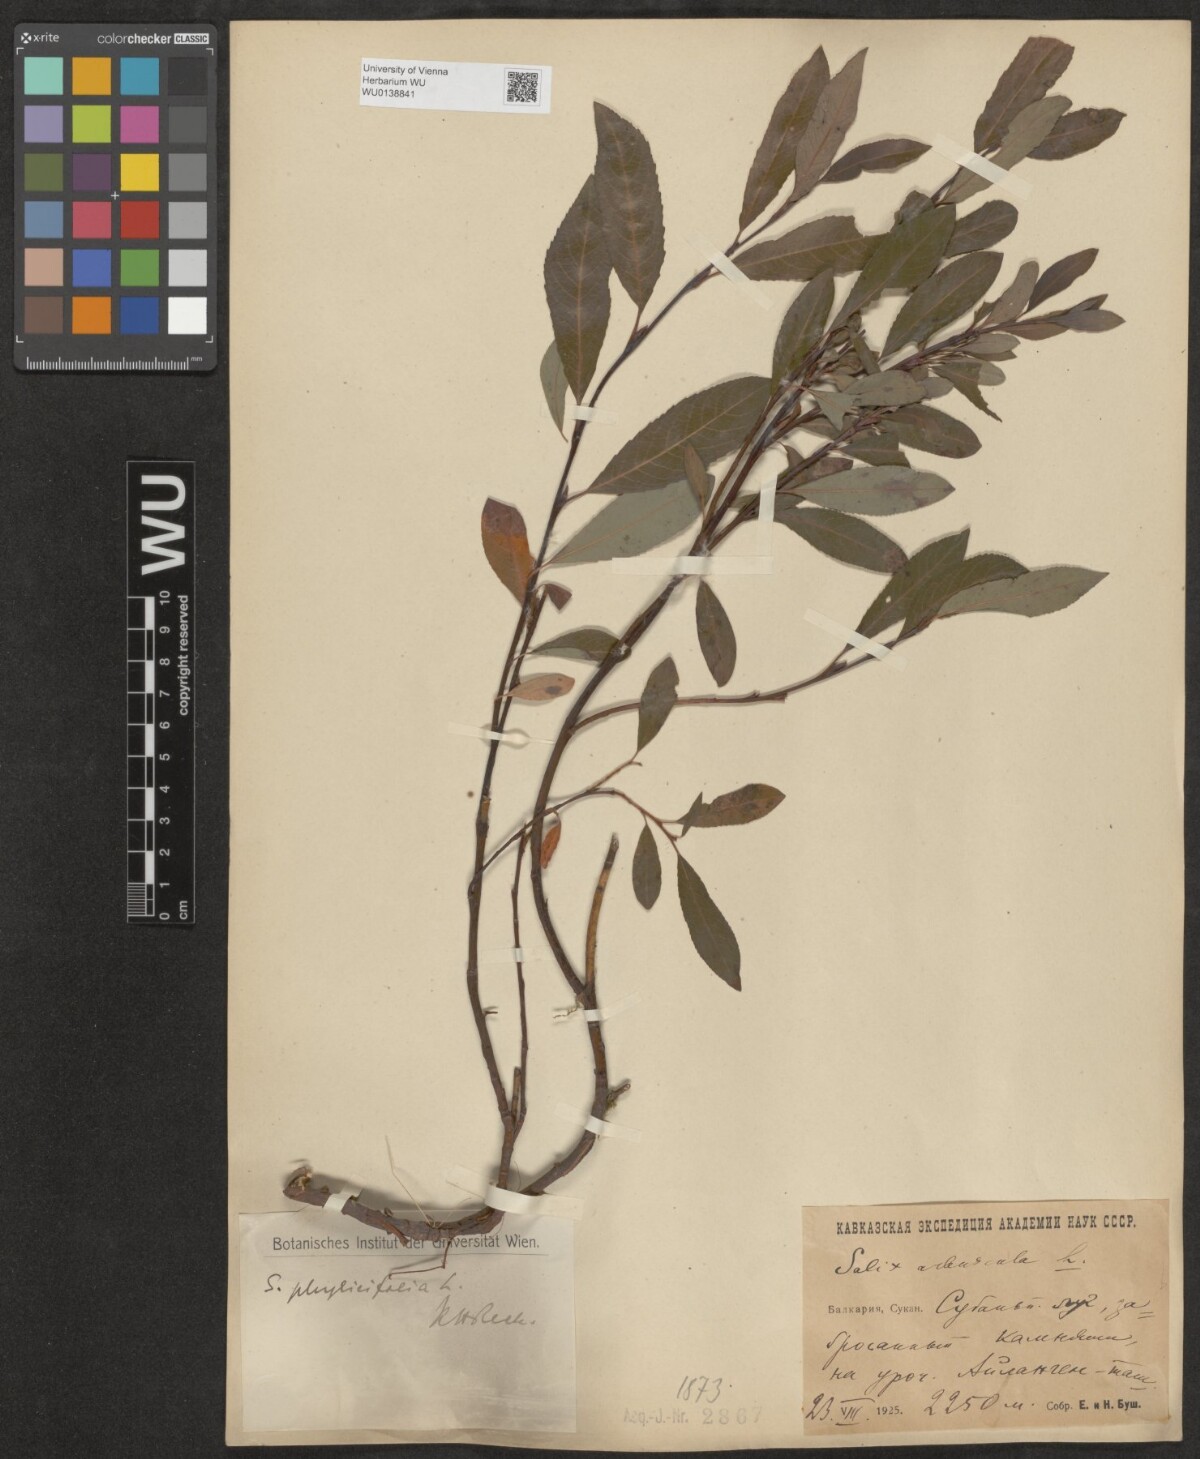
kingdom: Plantae
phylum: Tracheophyta
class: Magnoliopsida
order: Malpighiales
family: Salicaceae
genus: Salix
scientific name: Salix phylicifolia
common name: Tea-leaved willow
